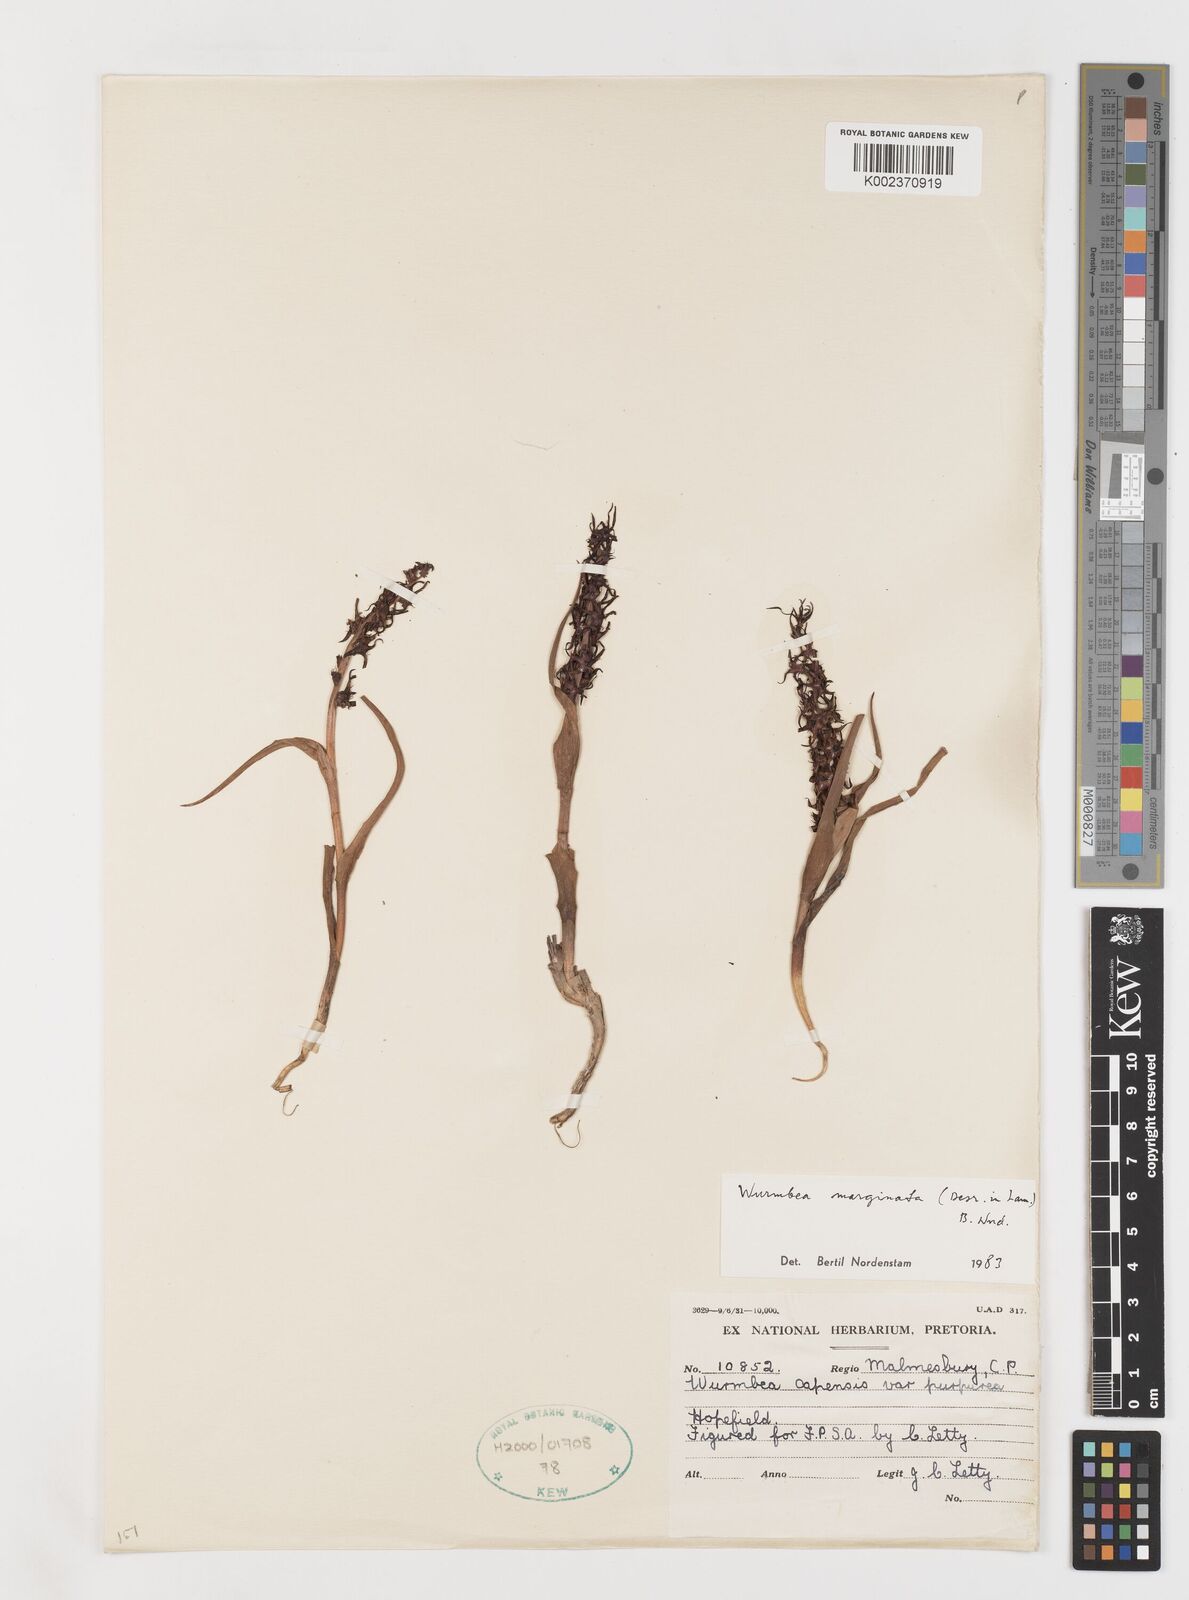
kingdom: Plantae
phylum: Tracheophyta
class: Liliopsida
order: Liliales
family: Colchicaceae
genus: Wurmbea
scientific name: Wurmbea marginata
